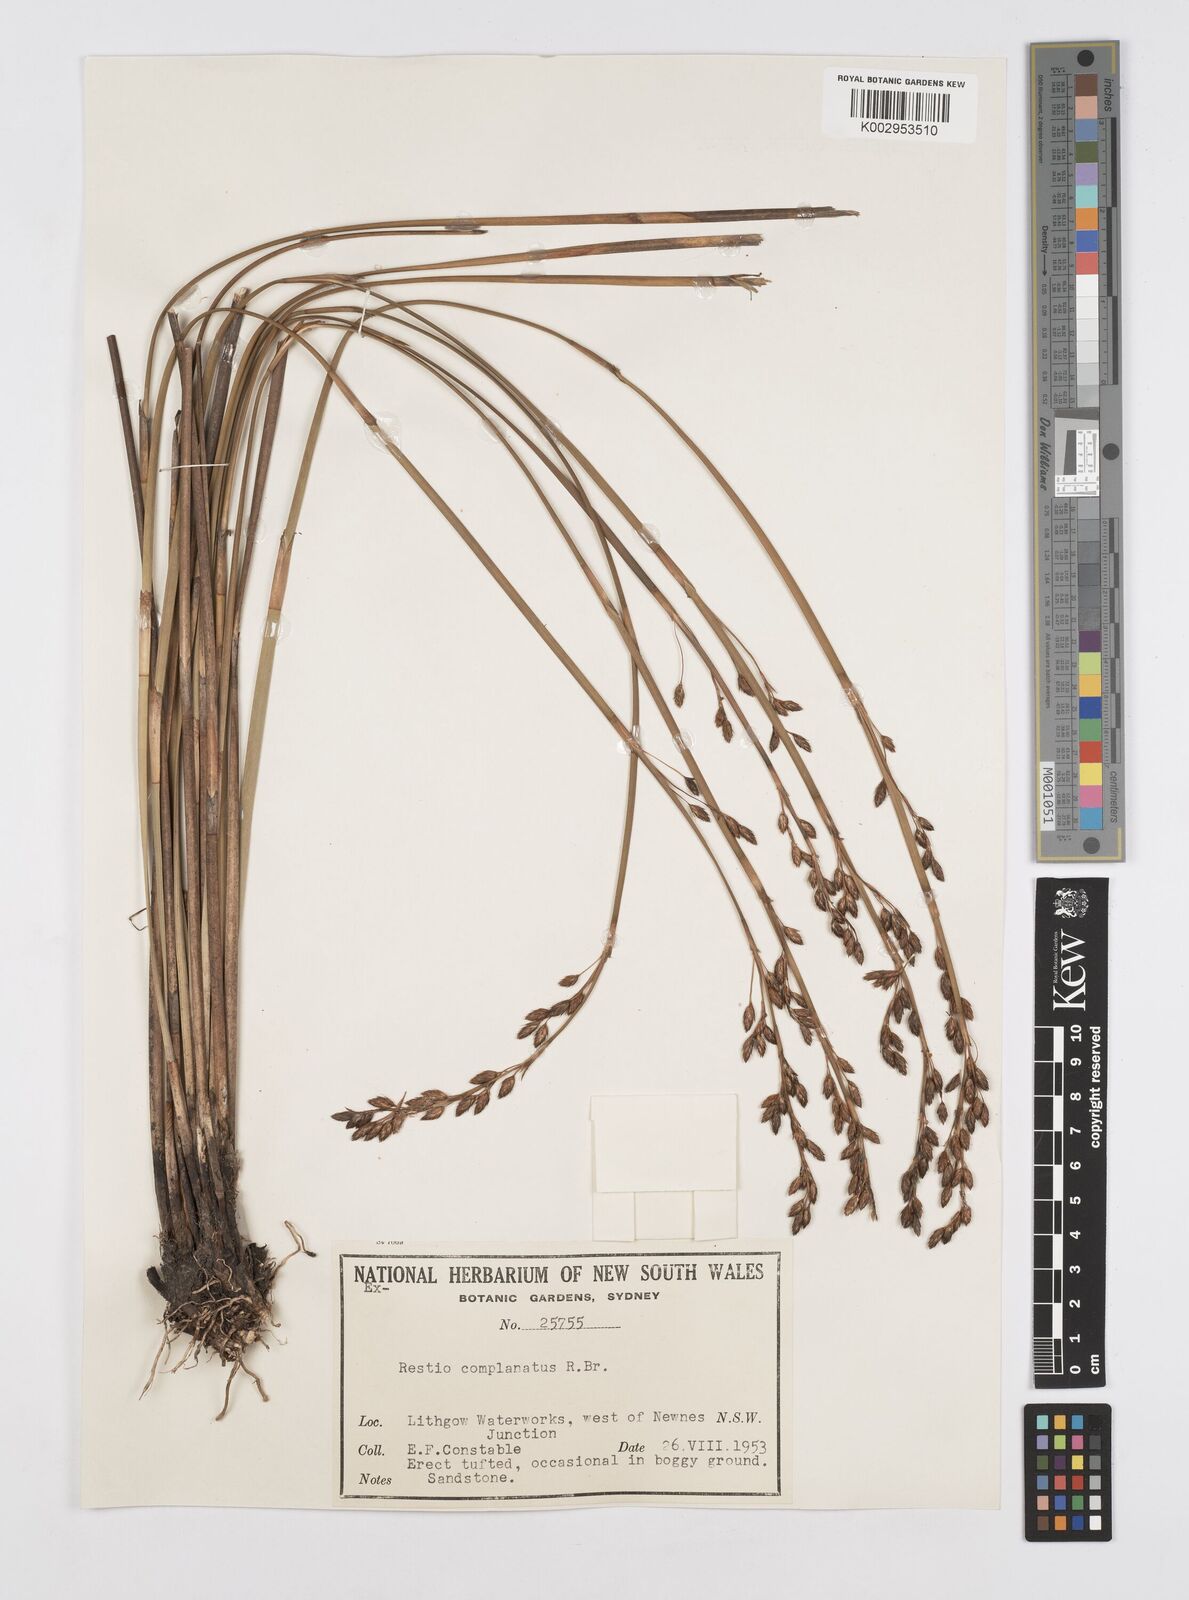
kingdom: Plantae
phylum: Tracheophyta
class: Liliopsida
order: Poales
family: Restionaceae
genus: Eurychorda
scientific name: Eurychorda complanata
